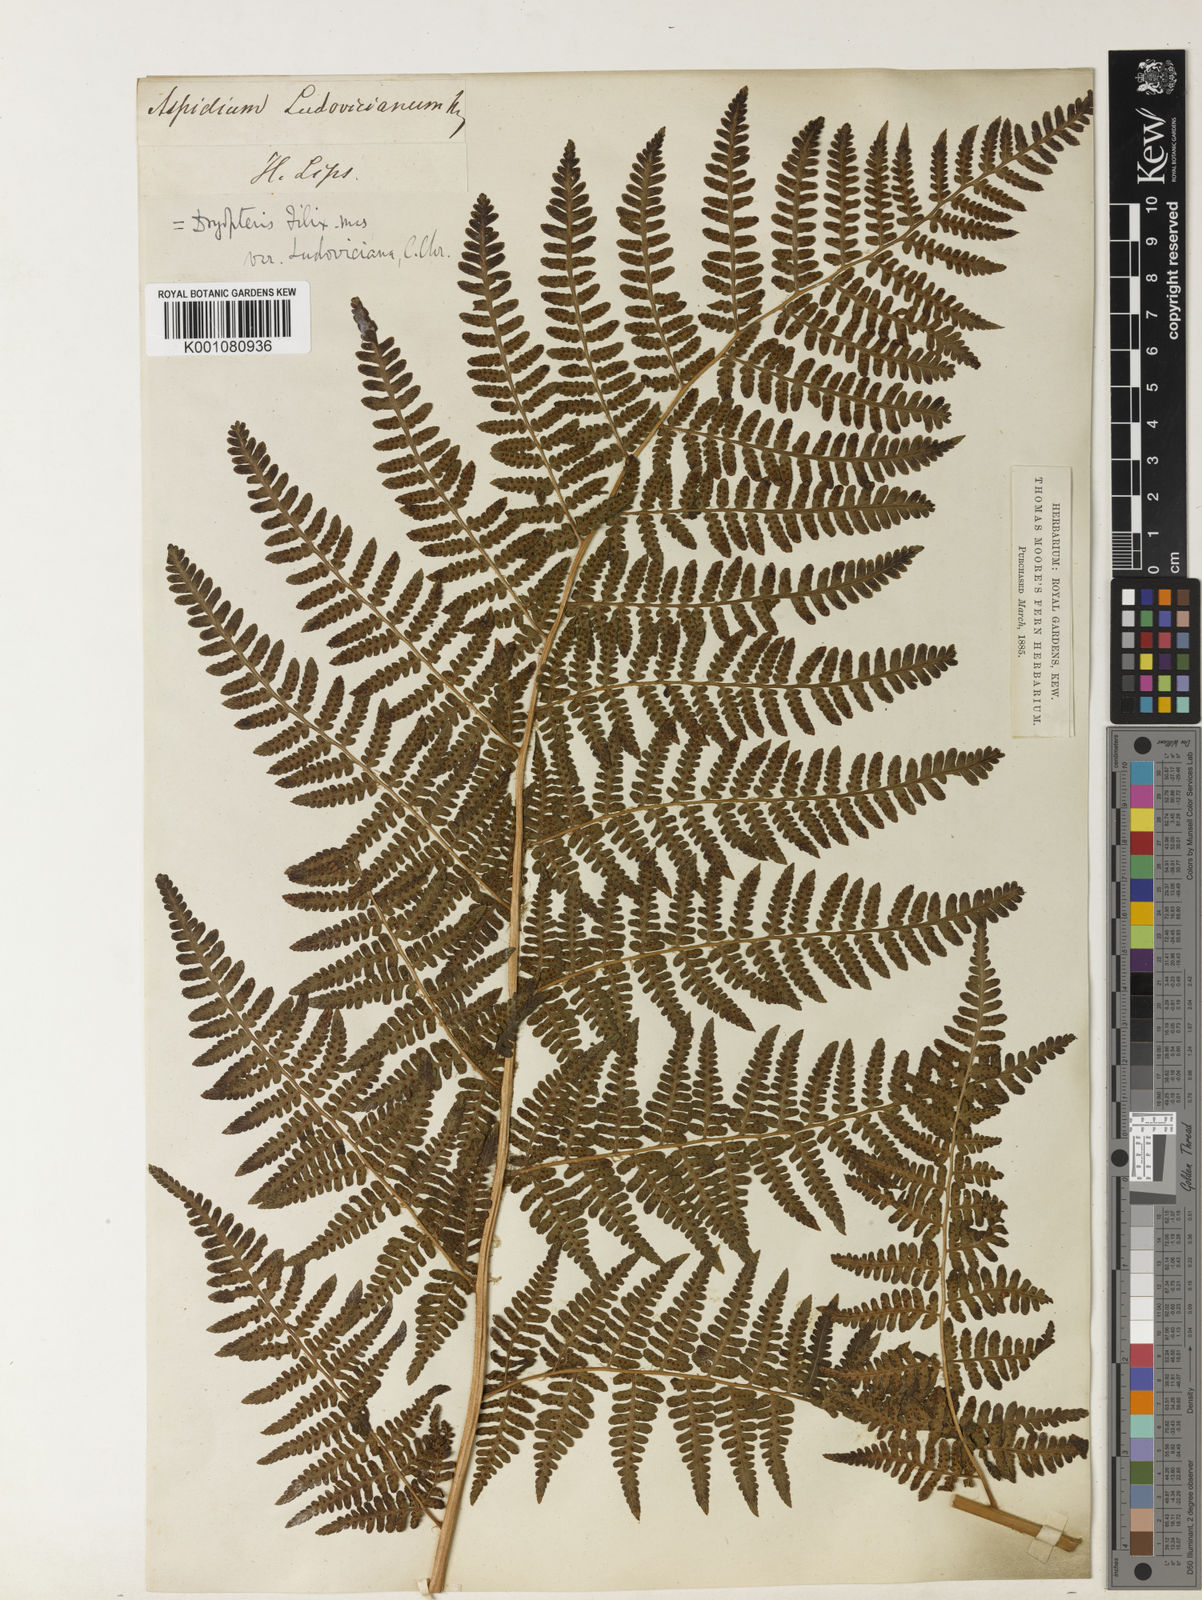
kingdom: Plantae
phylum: Tracheophyta
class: Polypodiopsida
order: Polypodiales
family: Dryopteridaceae
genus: Dryopteris
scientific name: Dryopteris oligodonta
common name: Canarian male-fern
